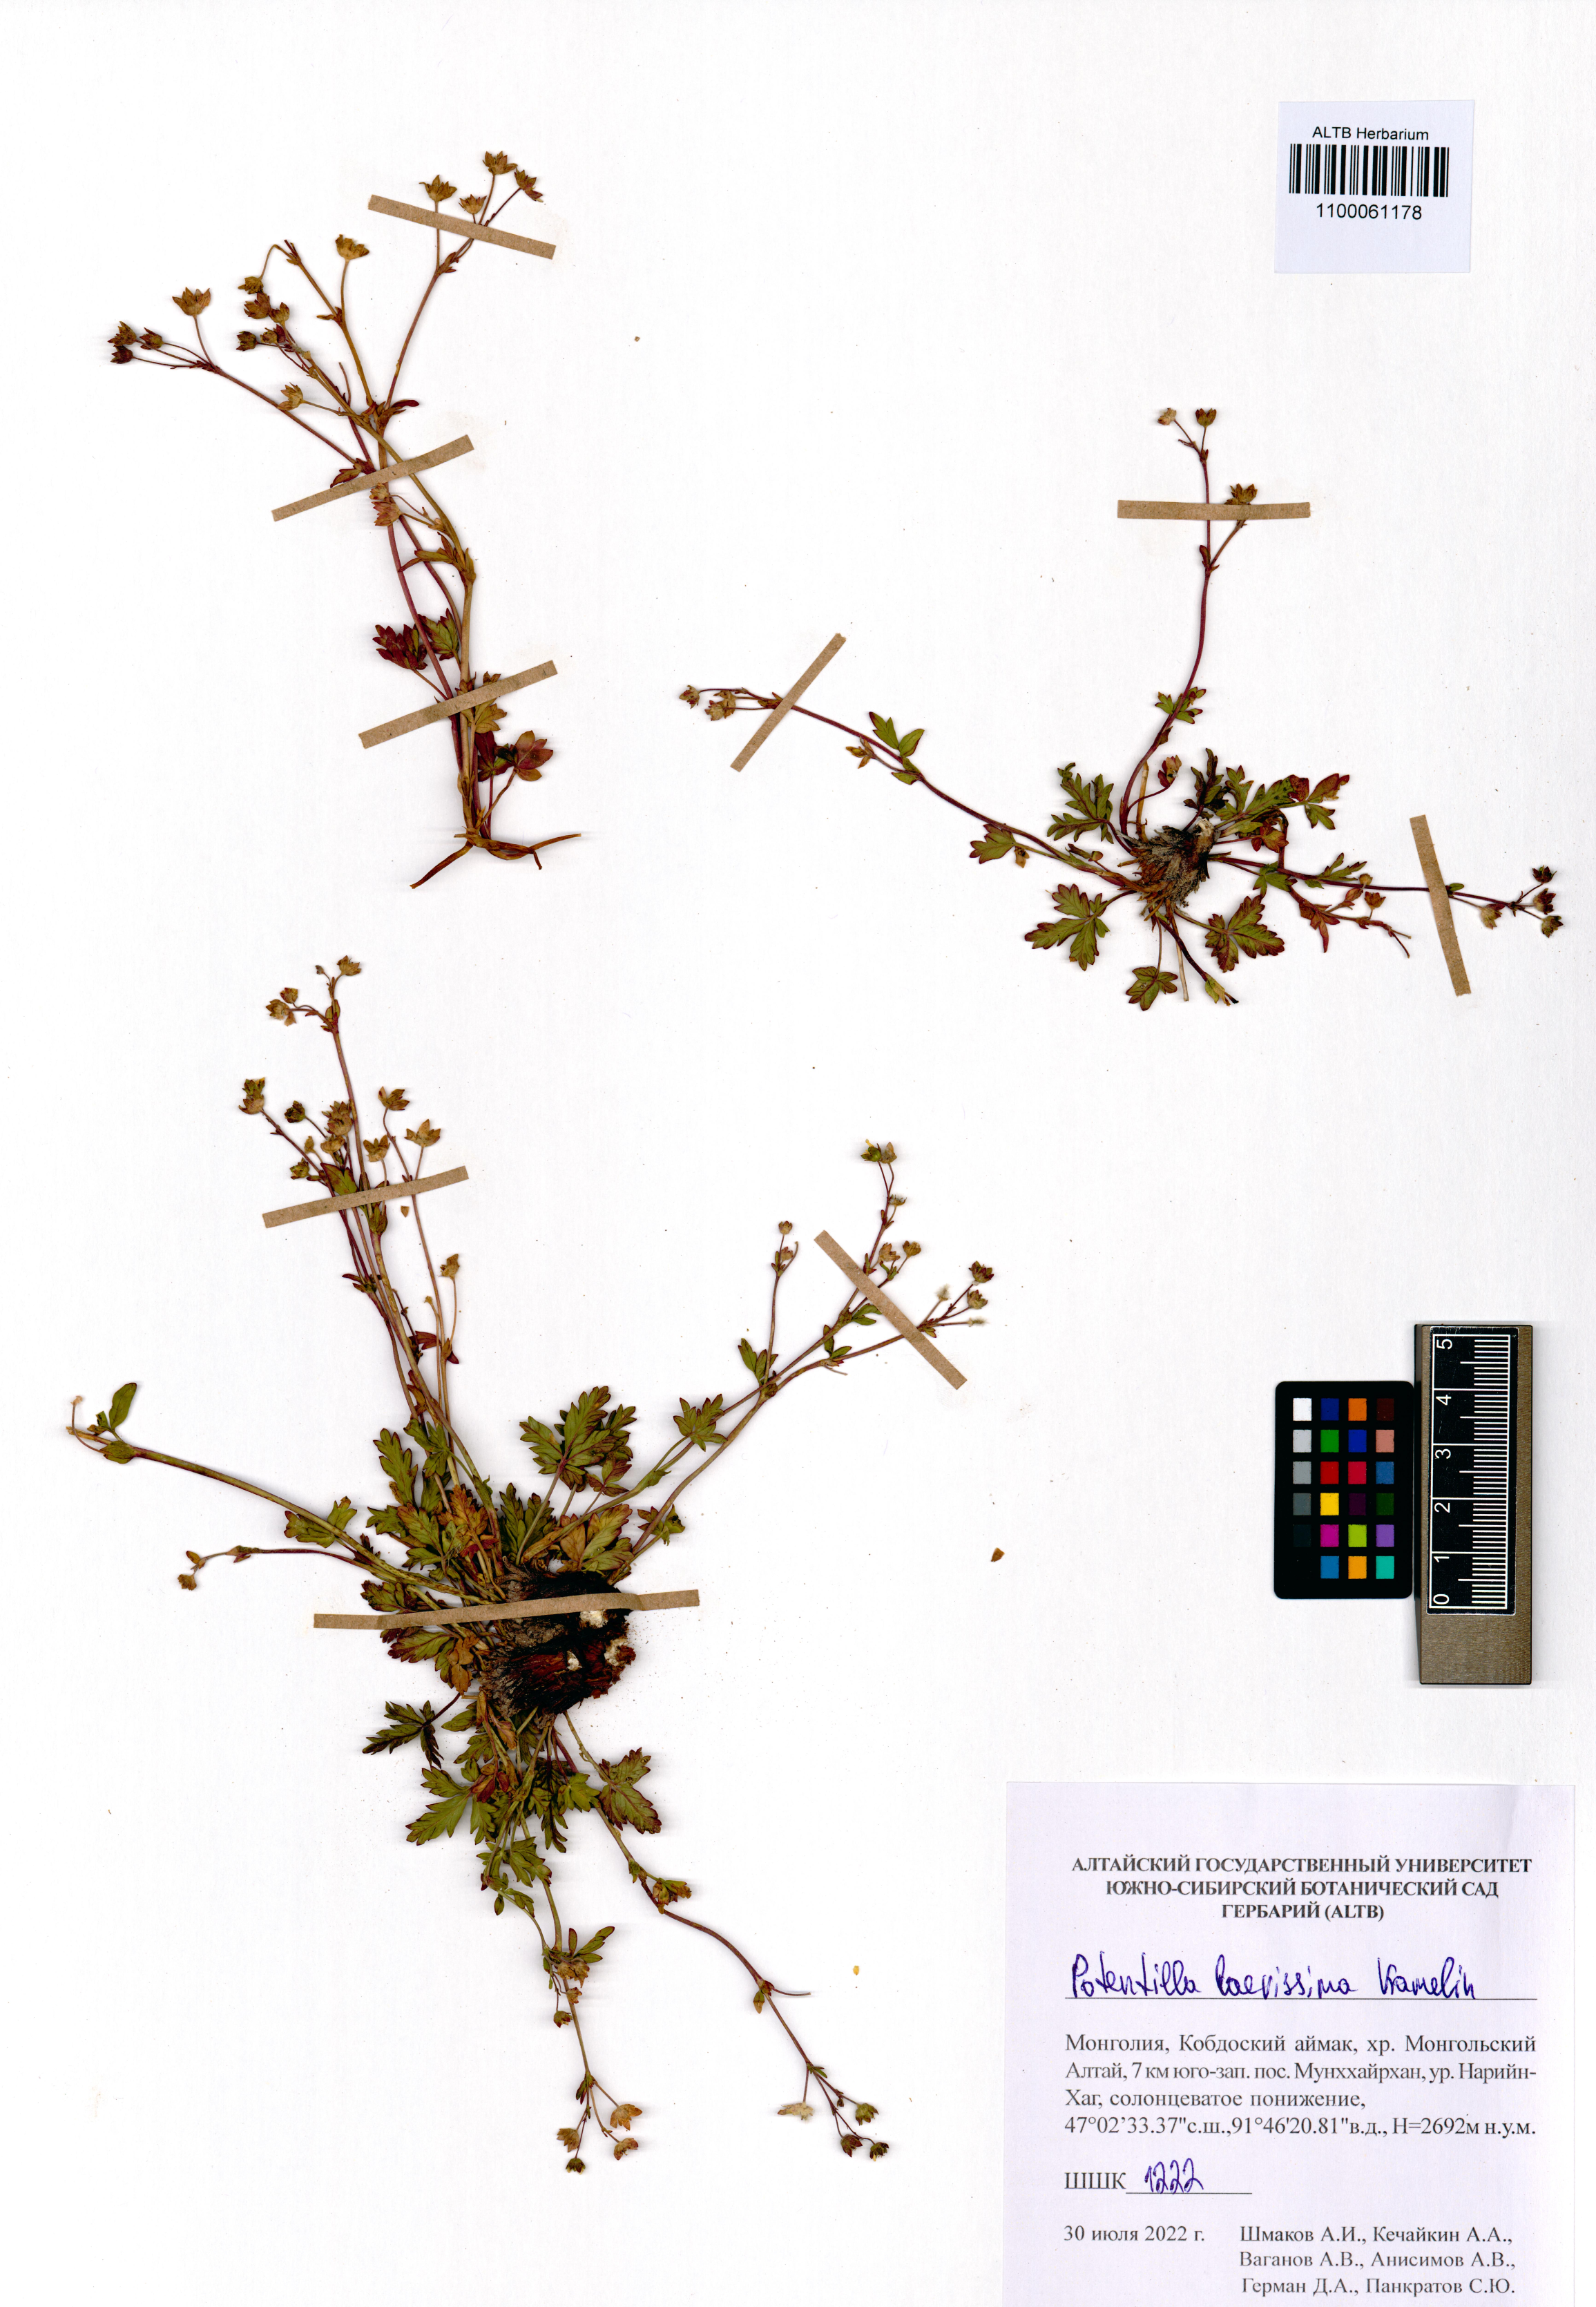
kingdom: Plantae
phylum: Tracheophyta
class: Magnoliopsida
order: Rosales
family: Rosaceae
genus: Potentilla
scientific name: Potentilla laevissima
